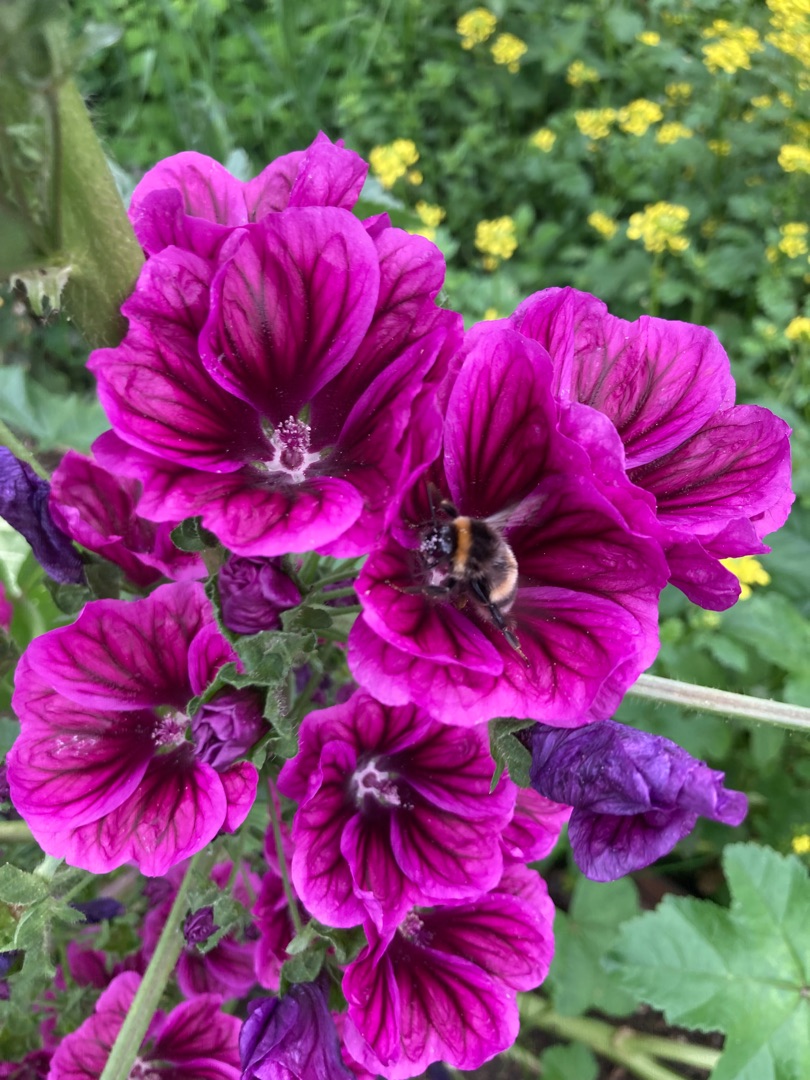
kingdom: Plantae
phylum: Tracheophyta
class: Magnoliopsida
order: Malvales
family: Malvaceae
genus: Malva
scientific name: Malva sylvestris
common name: Stor katost
